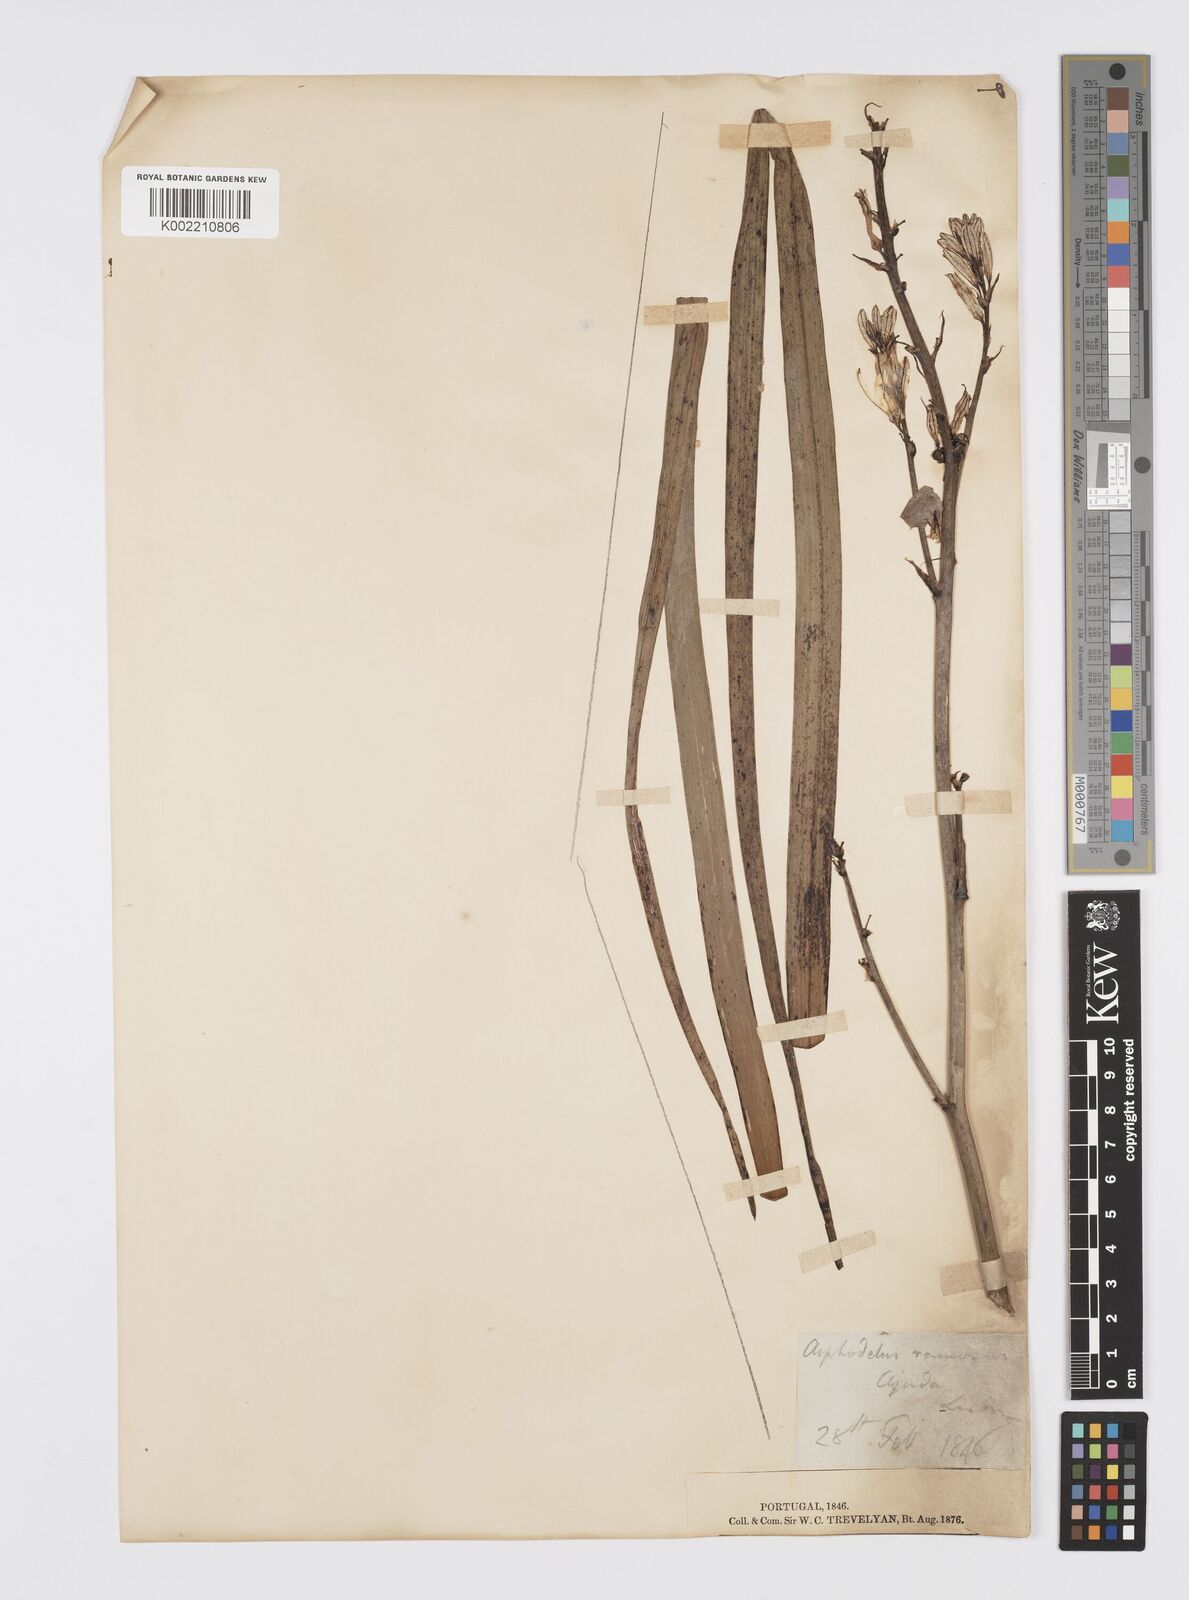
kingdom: Plantae
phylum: Tracheophyta
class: Liliopsida
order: Asparagales
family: Asphodelaceae
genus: Asphodelus
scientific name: Asphodelus cerasifer
